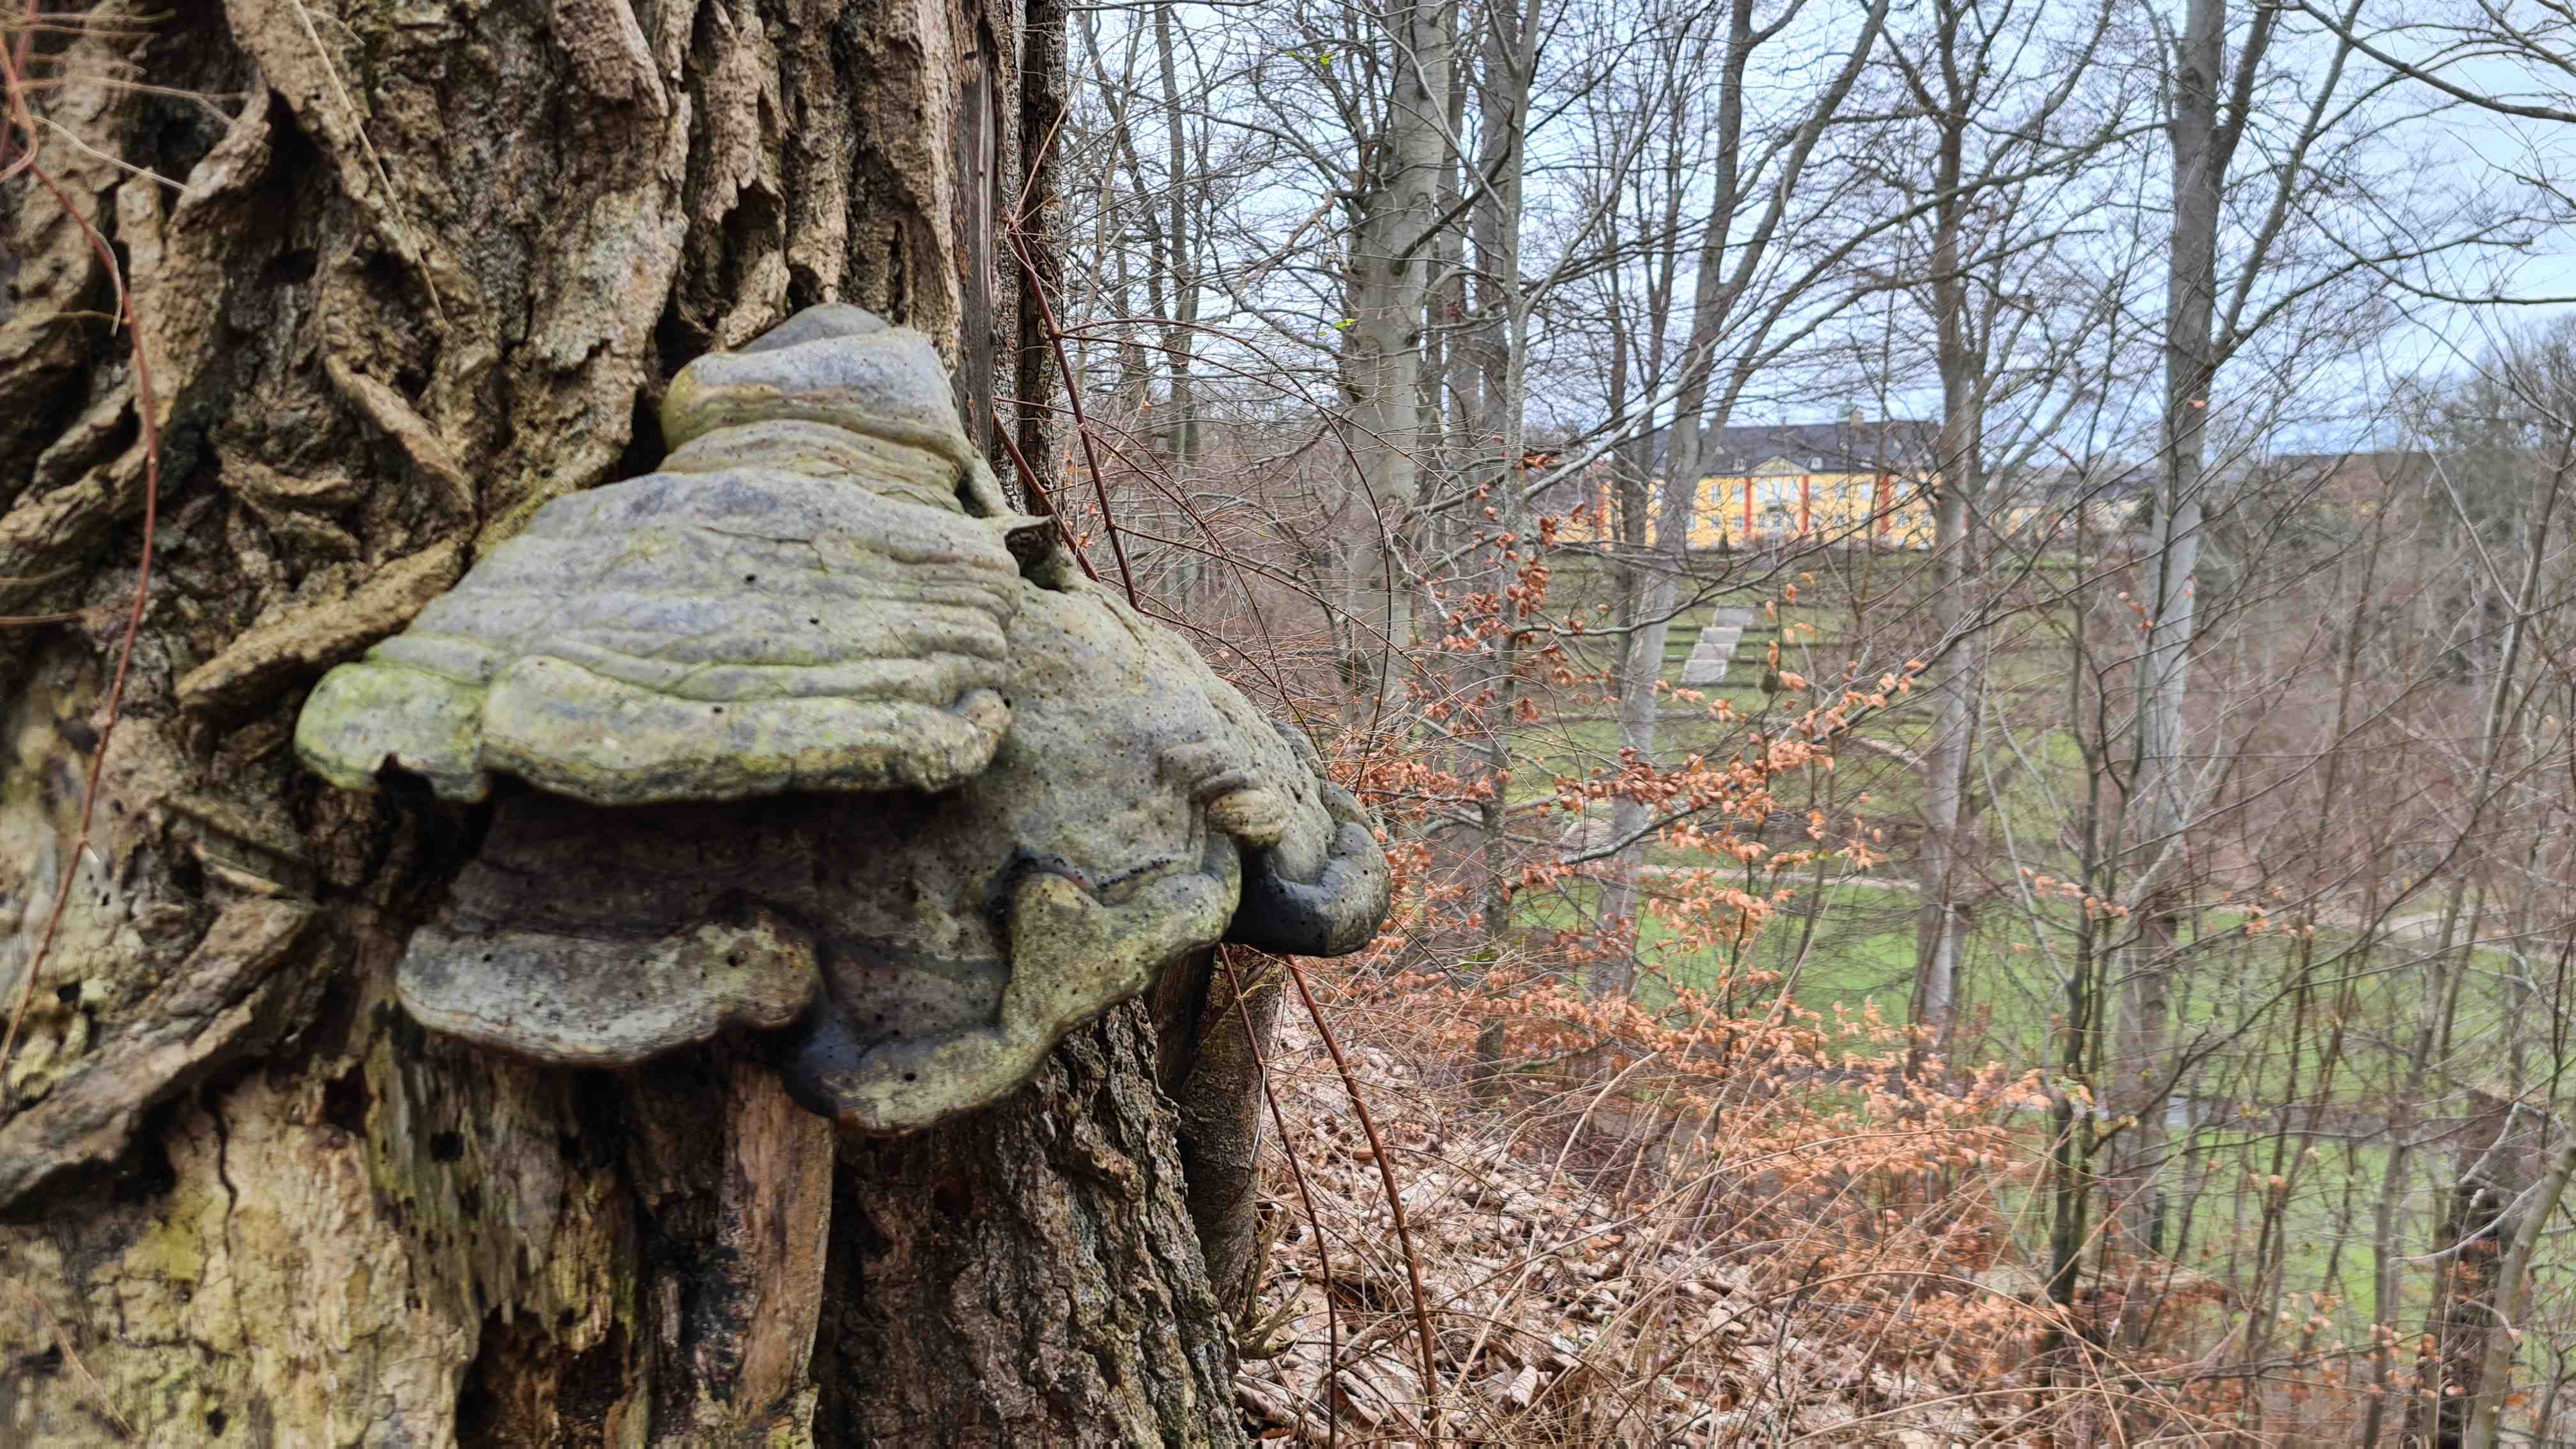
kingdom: Fungi
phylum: Basidiomycota
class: Agaricomycetes
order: Polyporales
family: Polyporaceae
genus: Fomes
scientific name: Fomes fomentarius
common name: tøndersvamp
